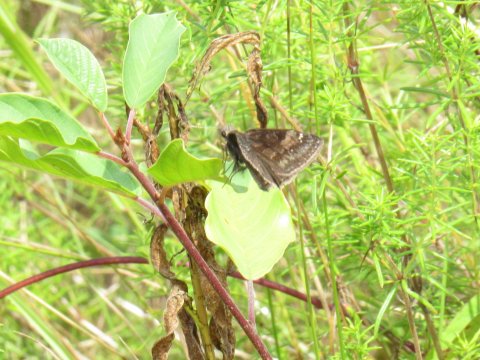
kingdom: Animalia
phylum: Arthropoda
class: Insecta
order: Lepidoptera
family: Hesperiidae
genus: Gesta
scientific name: Gesta
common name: Wild Indigo Duskywing
